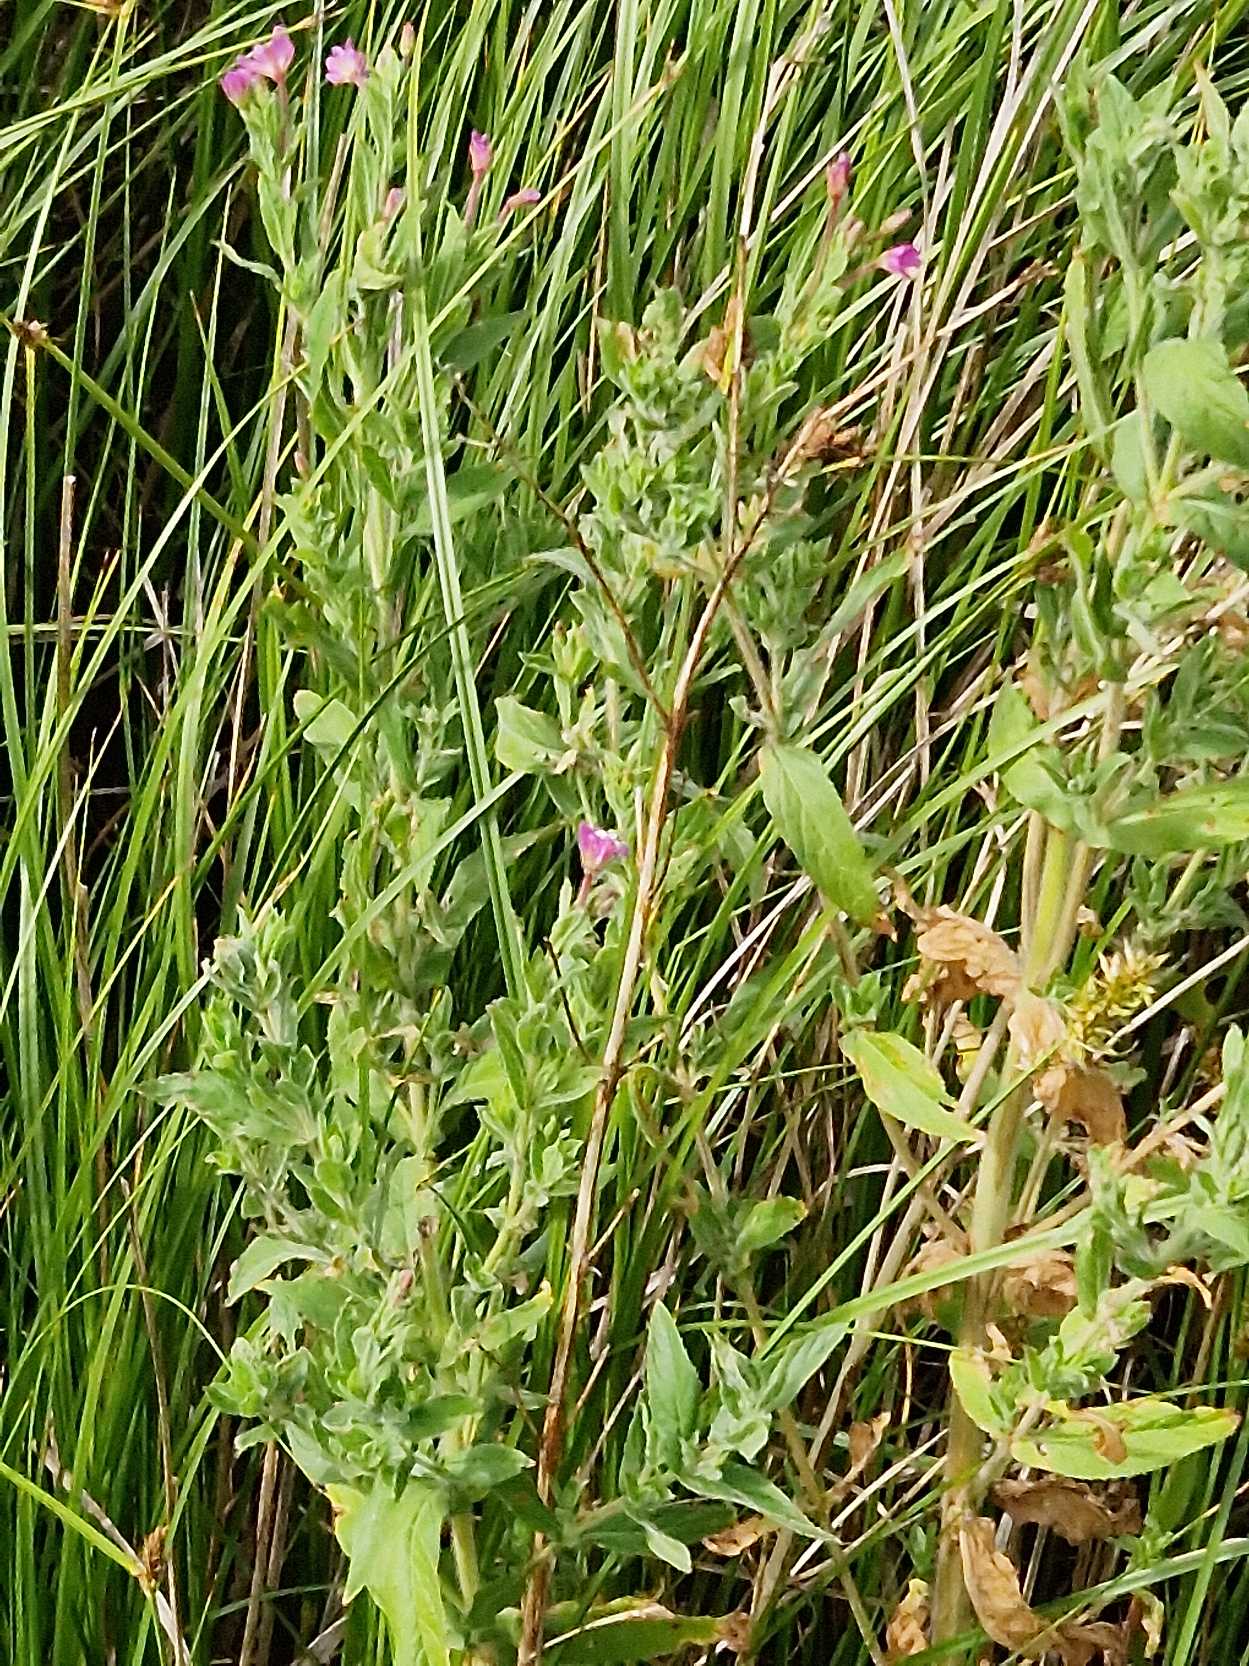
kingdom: Plantae
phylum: Tracheophyta
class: Magnoliopsida
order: Myrtales
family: Onagraceae
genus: Epilobium
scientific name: Epilobium hirsutum
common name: Lådden dueurt
